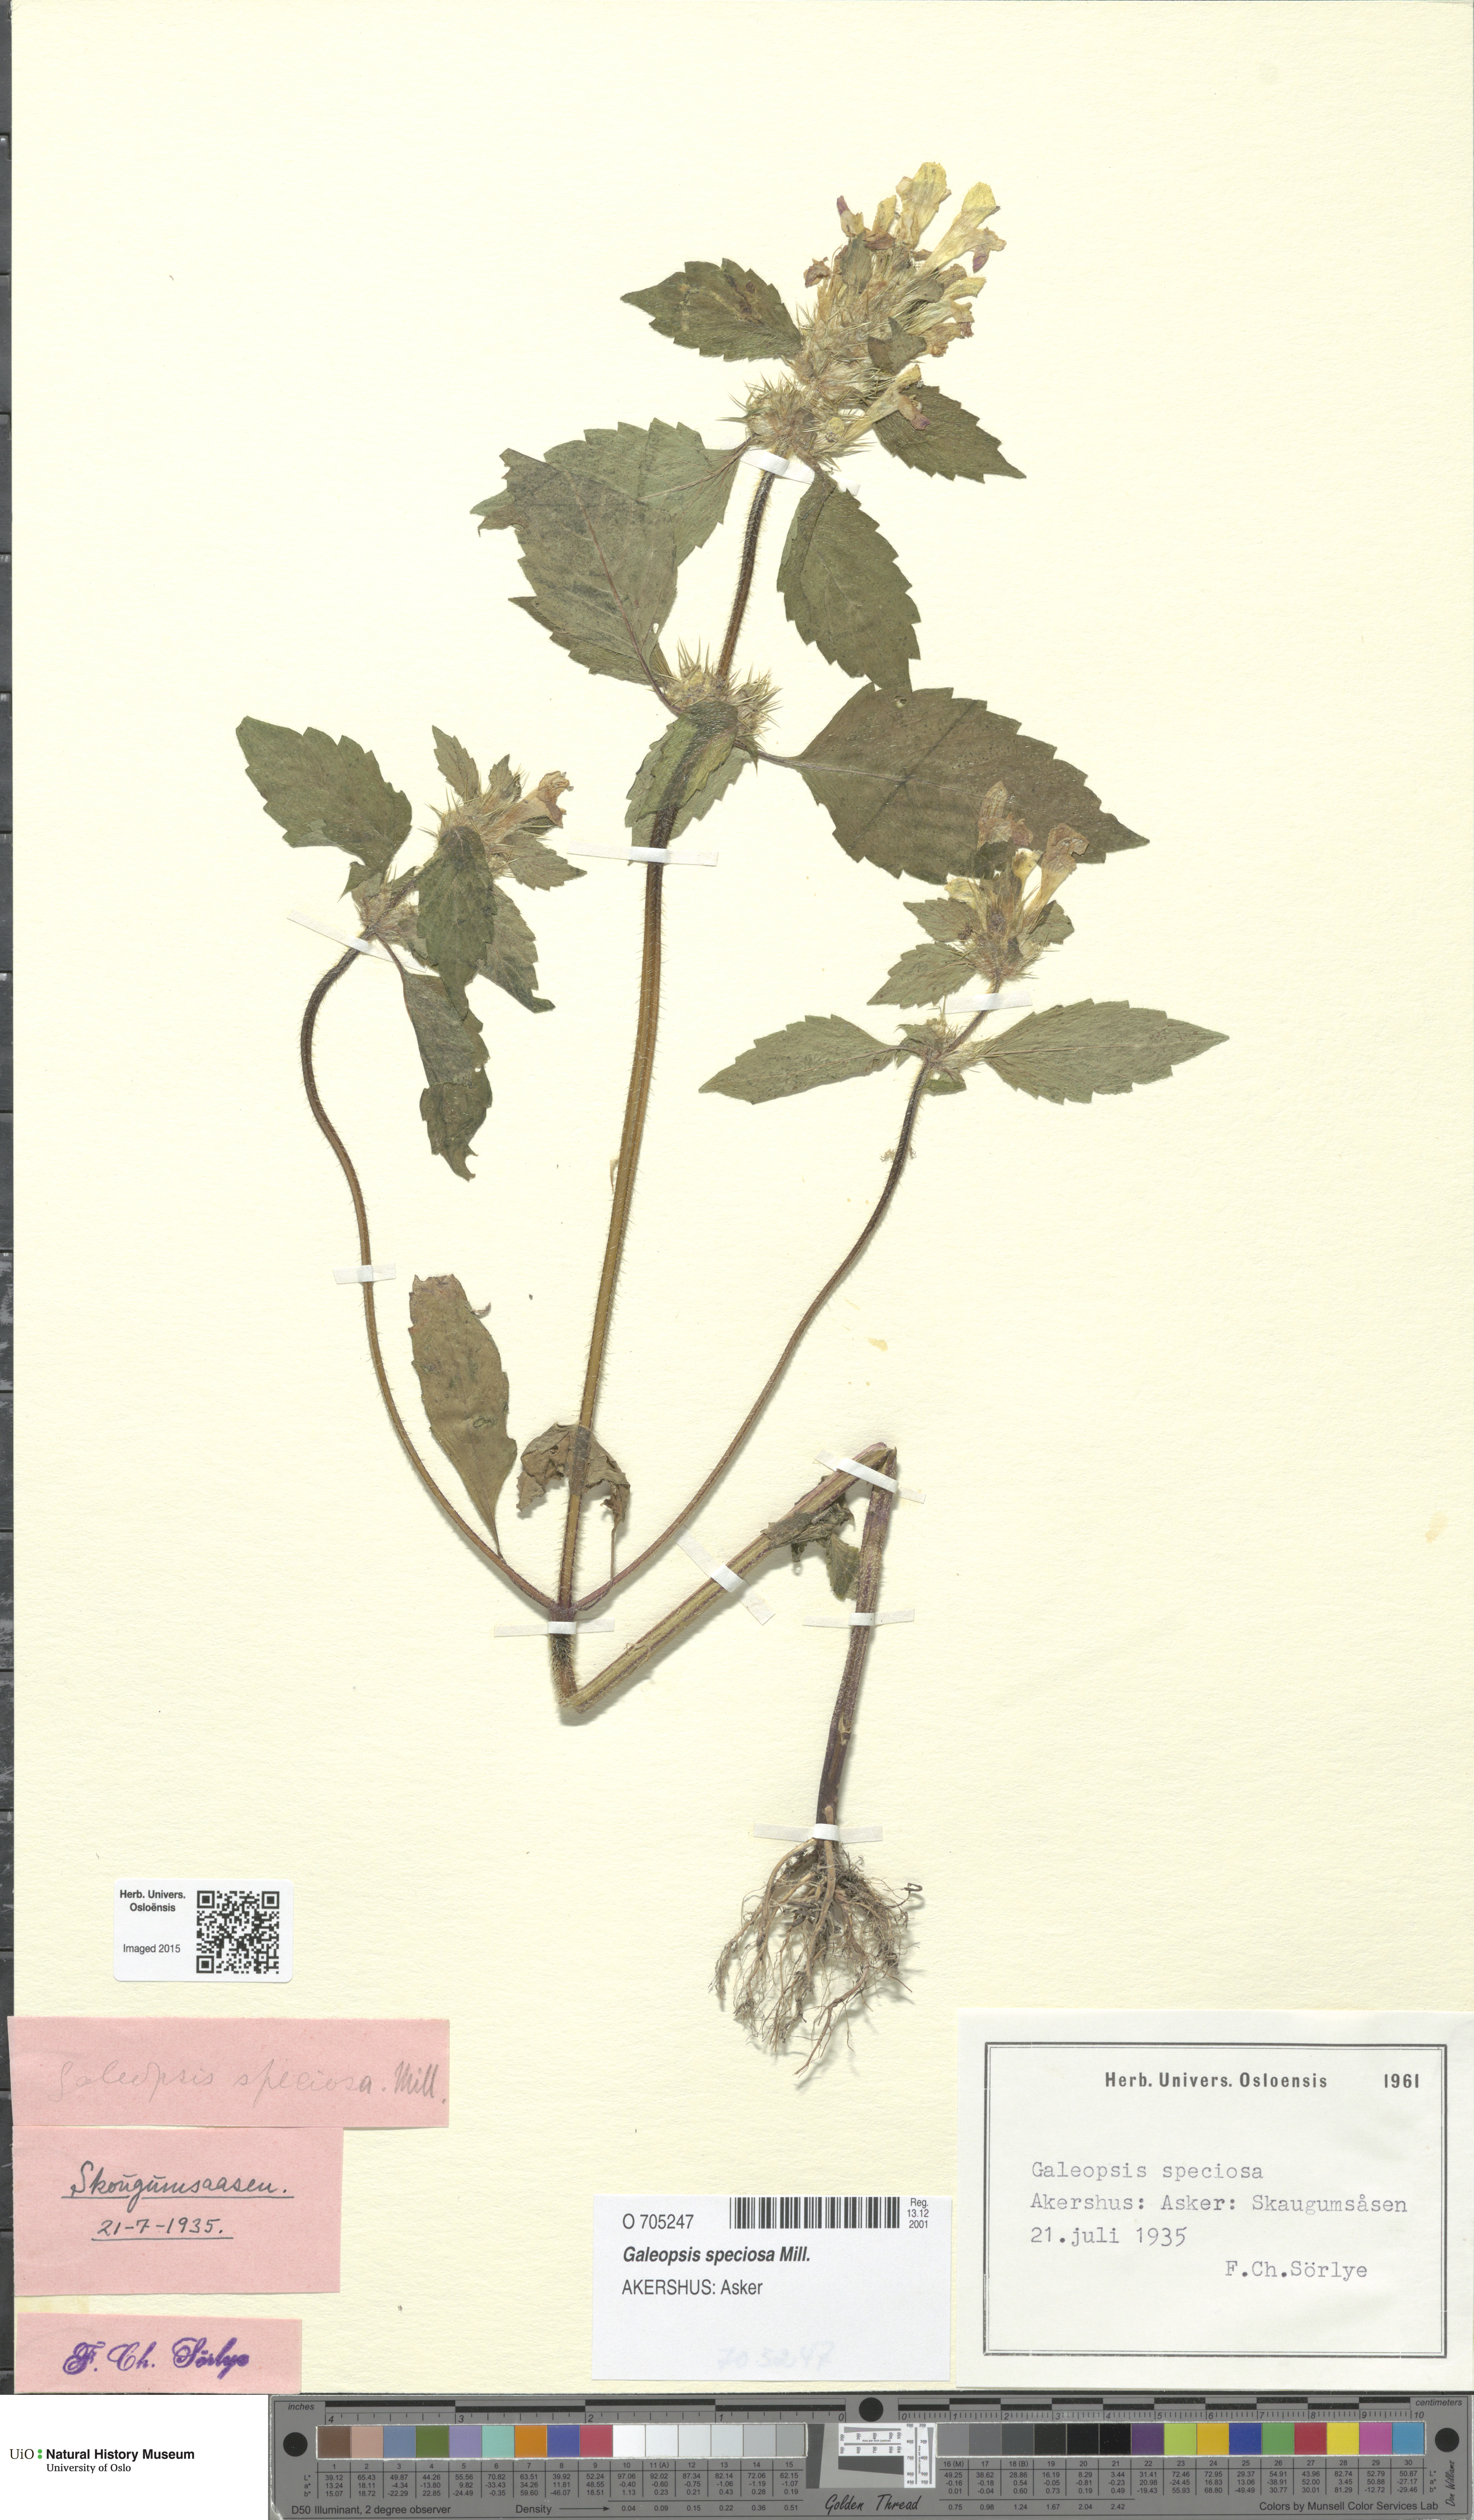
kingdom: Plantae
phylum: Tracheophyta
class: Magnoliopsida
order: Lamiales
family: Lamiaceae
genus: Galeopsis
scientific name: Galeopsis speciosa
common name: Large-flowered hemp-nettle
